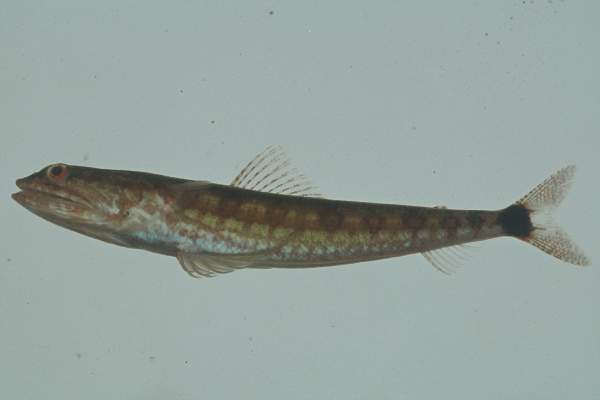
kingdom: Animalia
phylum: Chordata
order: Aulopiformes
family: Synodontidae
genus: Synodus
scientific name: Synodus jaculum
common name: Lighthouse lizardfish
